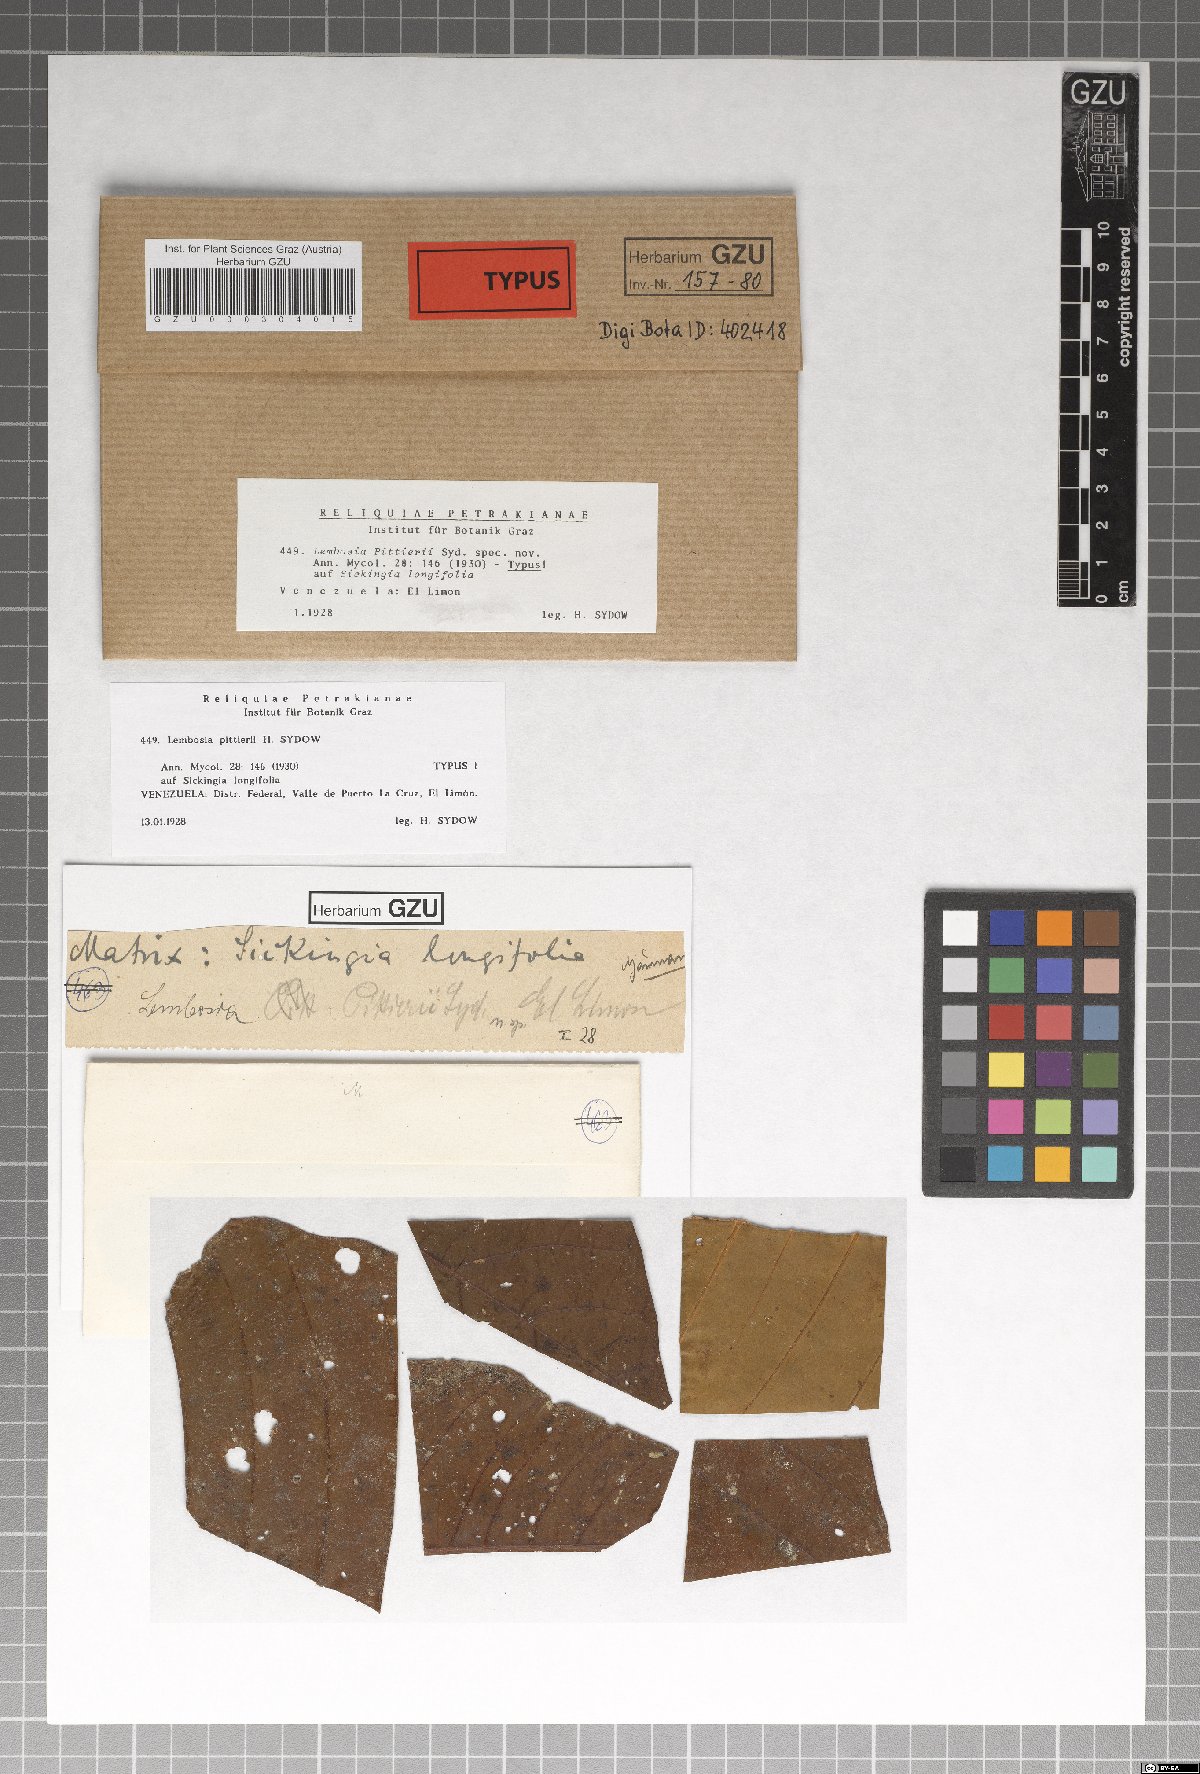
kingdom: Fungi
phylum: Ascomycota
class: Dothideomycetes
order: Asterinales
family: Asterinaceae
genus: Lembosia
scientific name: Lembosia pittieri
